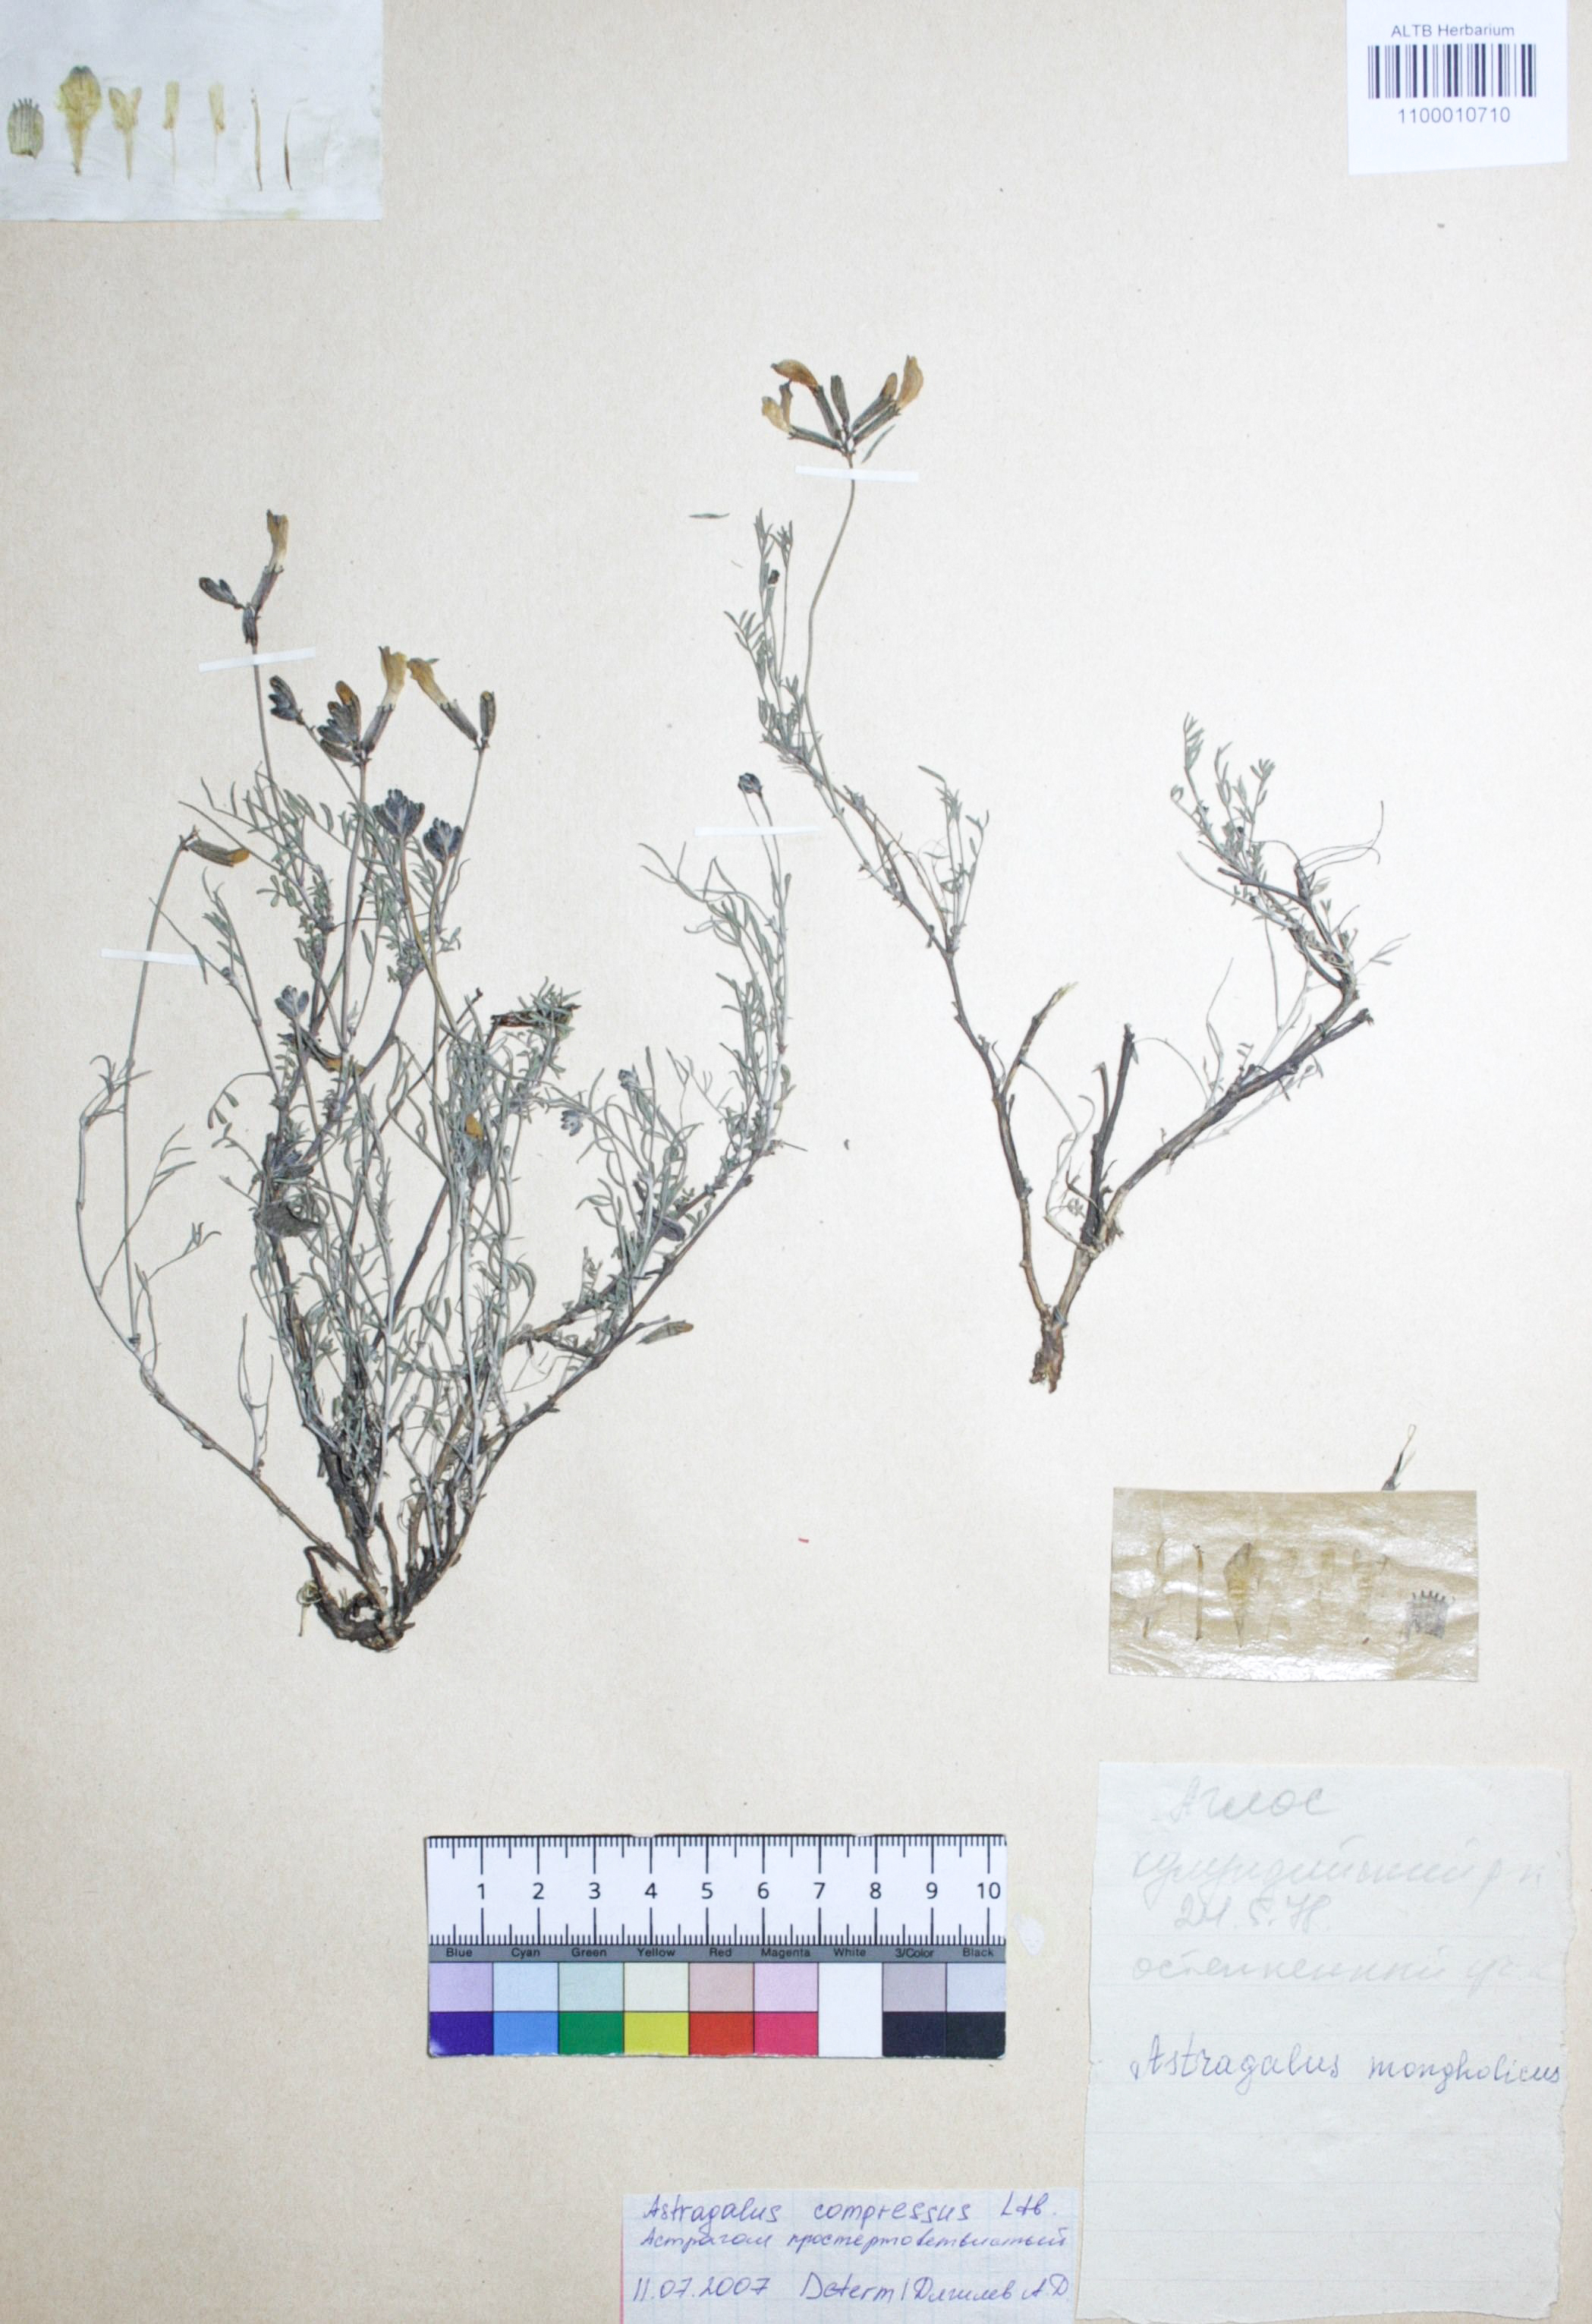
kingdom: Plantae
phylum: Tracheophyta
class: Magnoliopsida
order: Fabales
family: Fabaceae
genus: Astragalus
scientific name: Astragalus compressus
